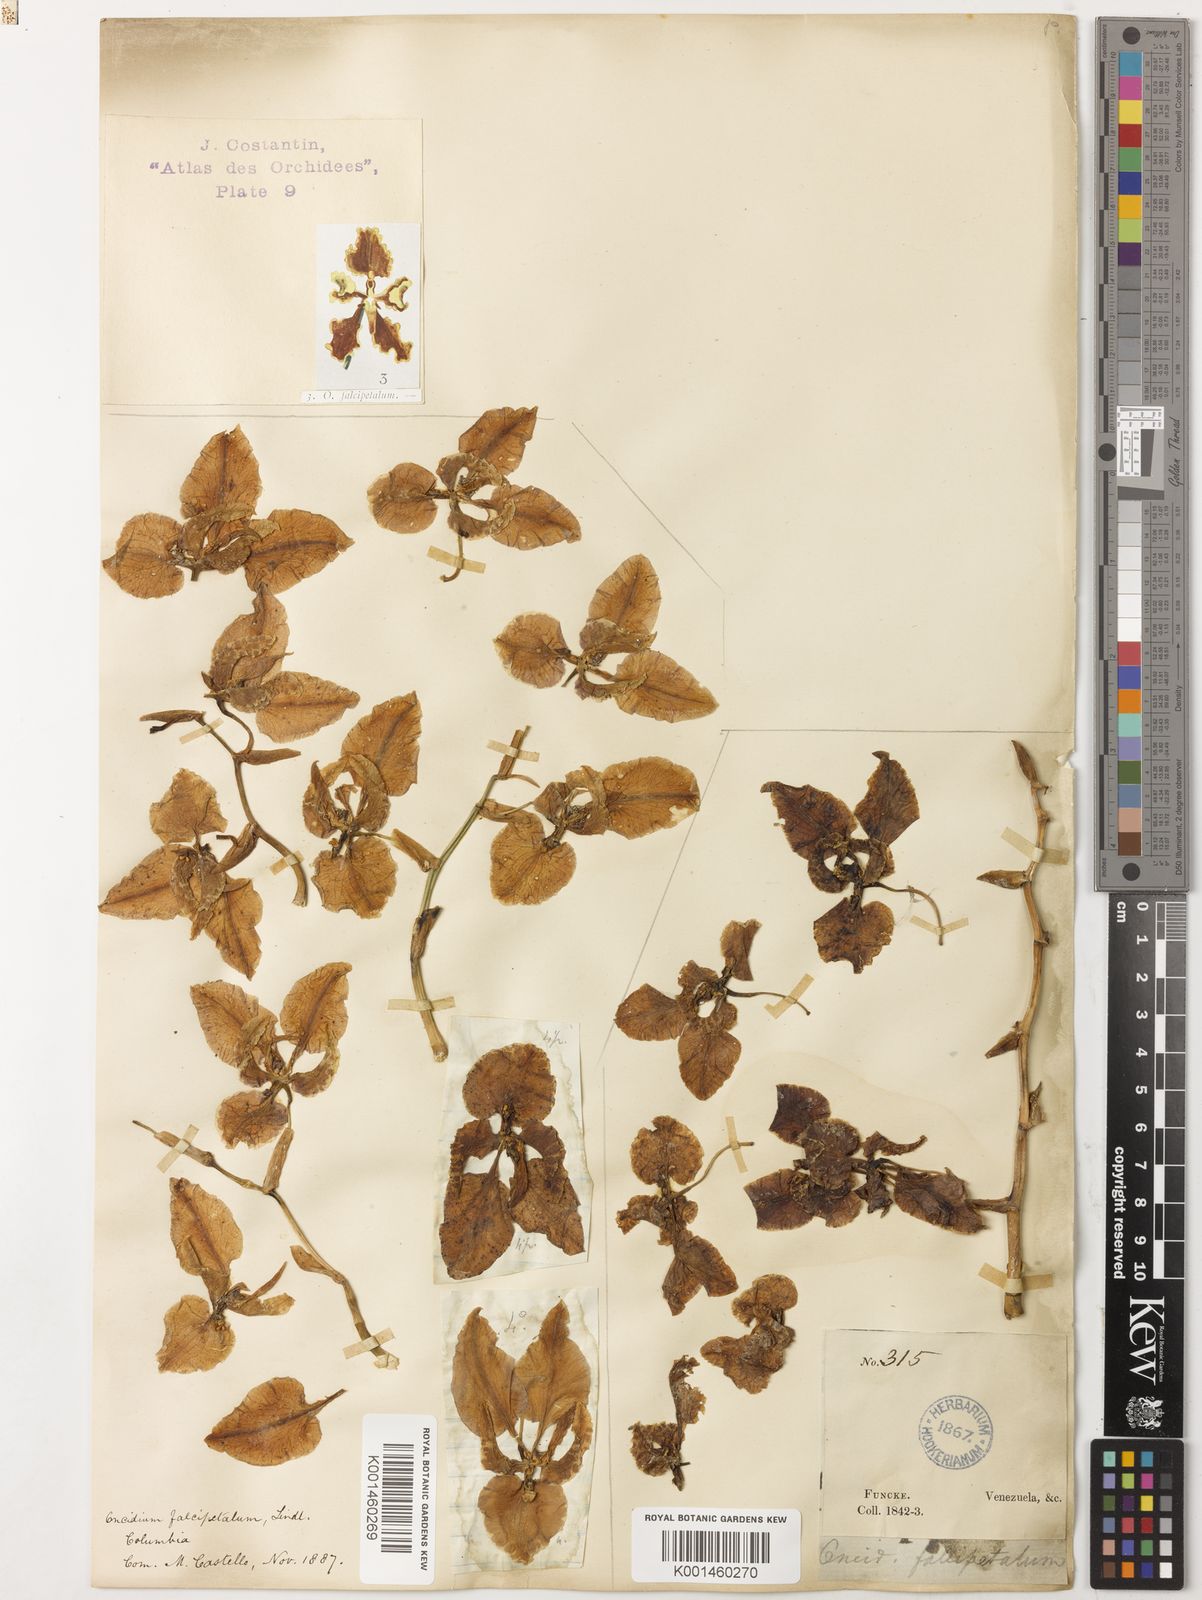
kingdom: Plantae
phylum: Tracheophyta
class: Liliopsida
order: Asparagales
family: Orchidaceae
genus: Cyrtochilum
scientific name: Cyrtochilum falcipetalum
